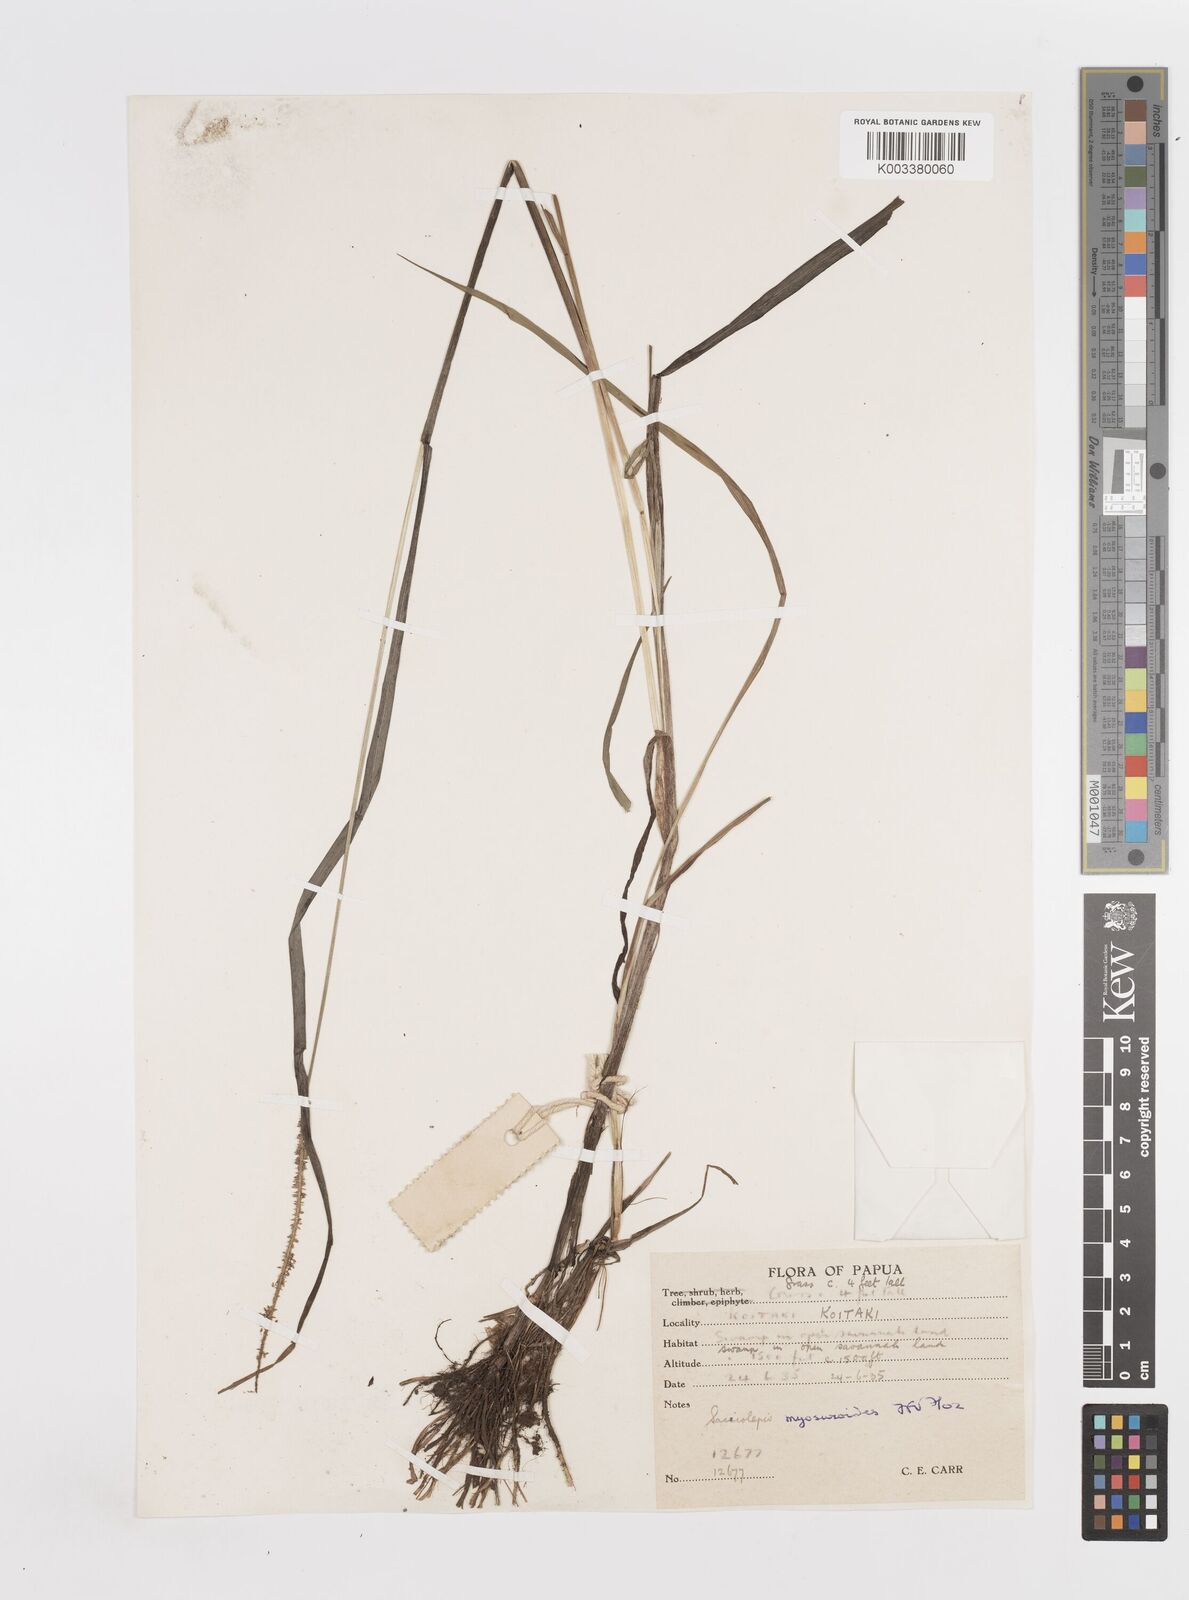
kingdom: Plantae
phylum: Tracheophyta
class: Liliopsida
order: Poales
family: Poaceae
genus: Sacciolepis
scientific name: Sacciolepis myosuroides
